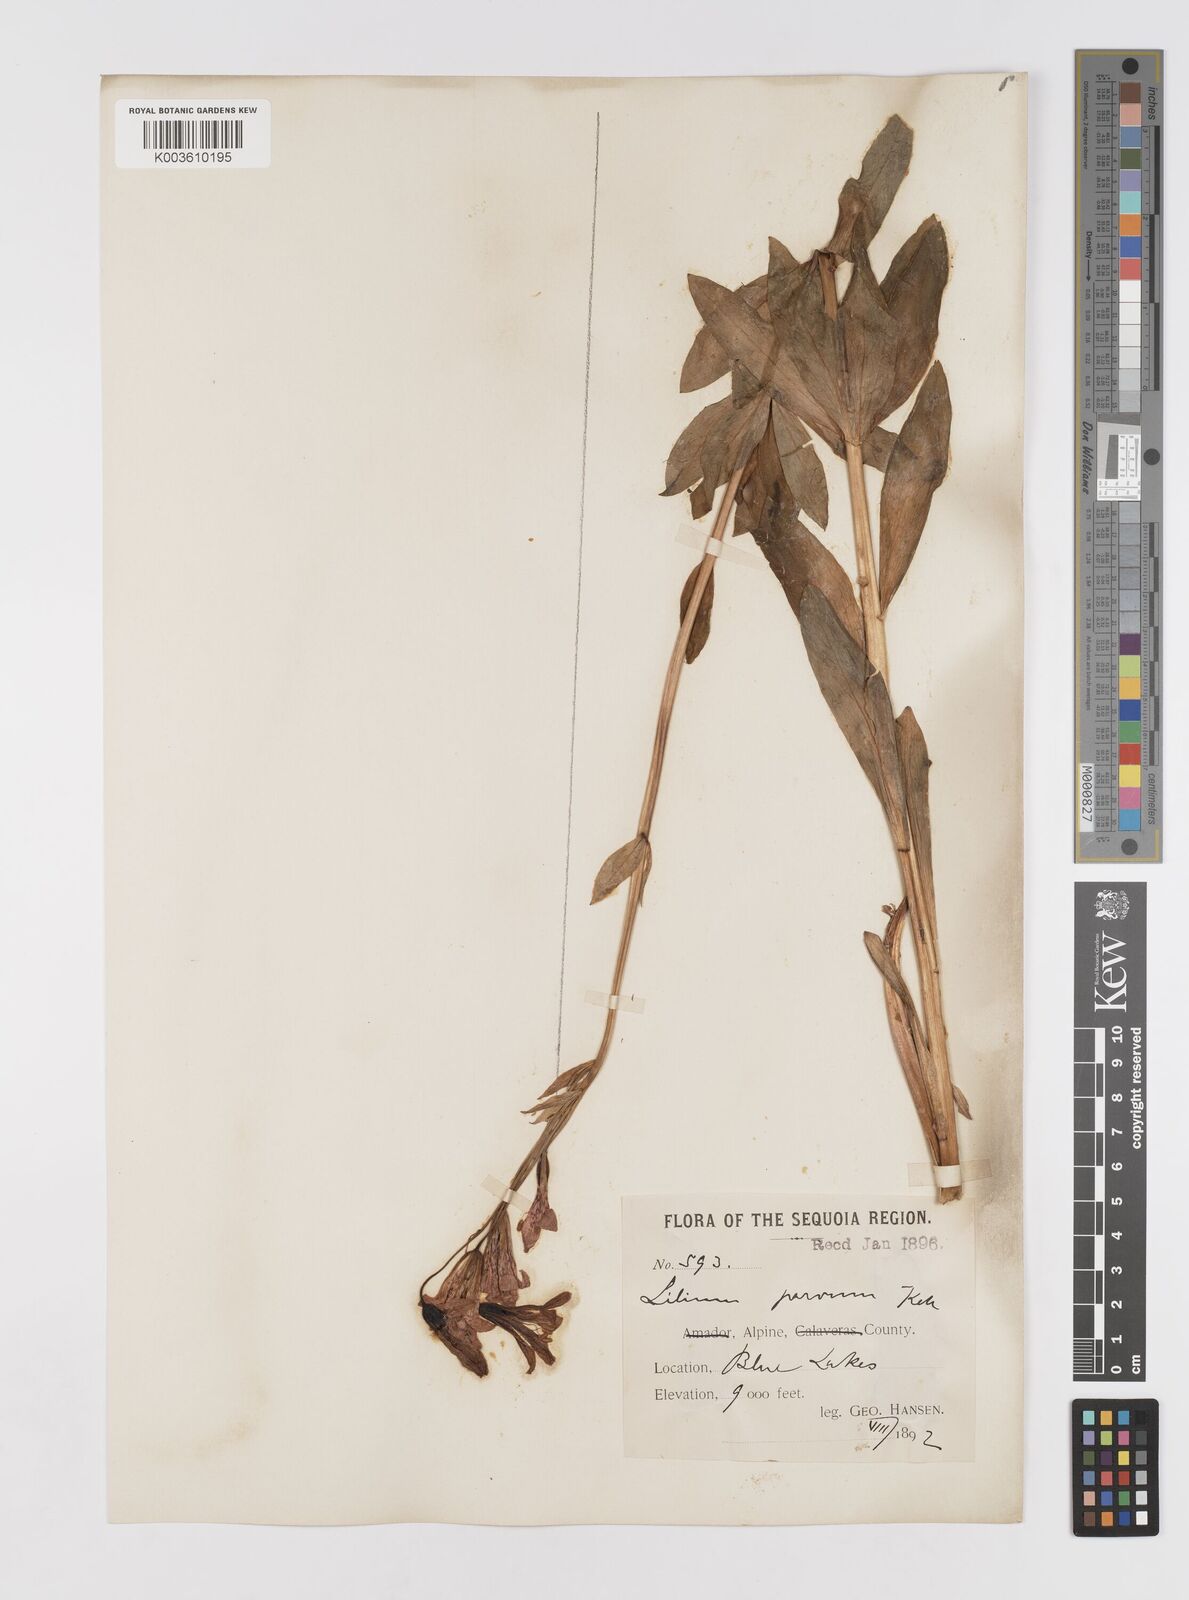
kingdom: Plantae
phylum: Tracheophyta
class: Liliopsida
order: Liliales
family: Liliaceae
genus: Lilium
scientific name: Lilium parvum
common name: Alpine lily
